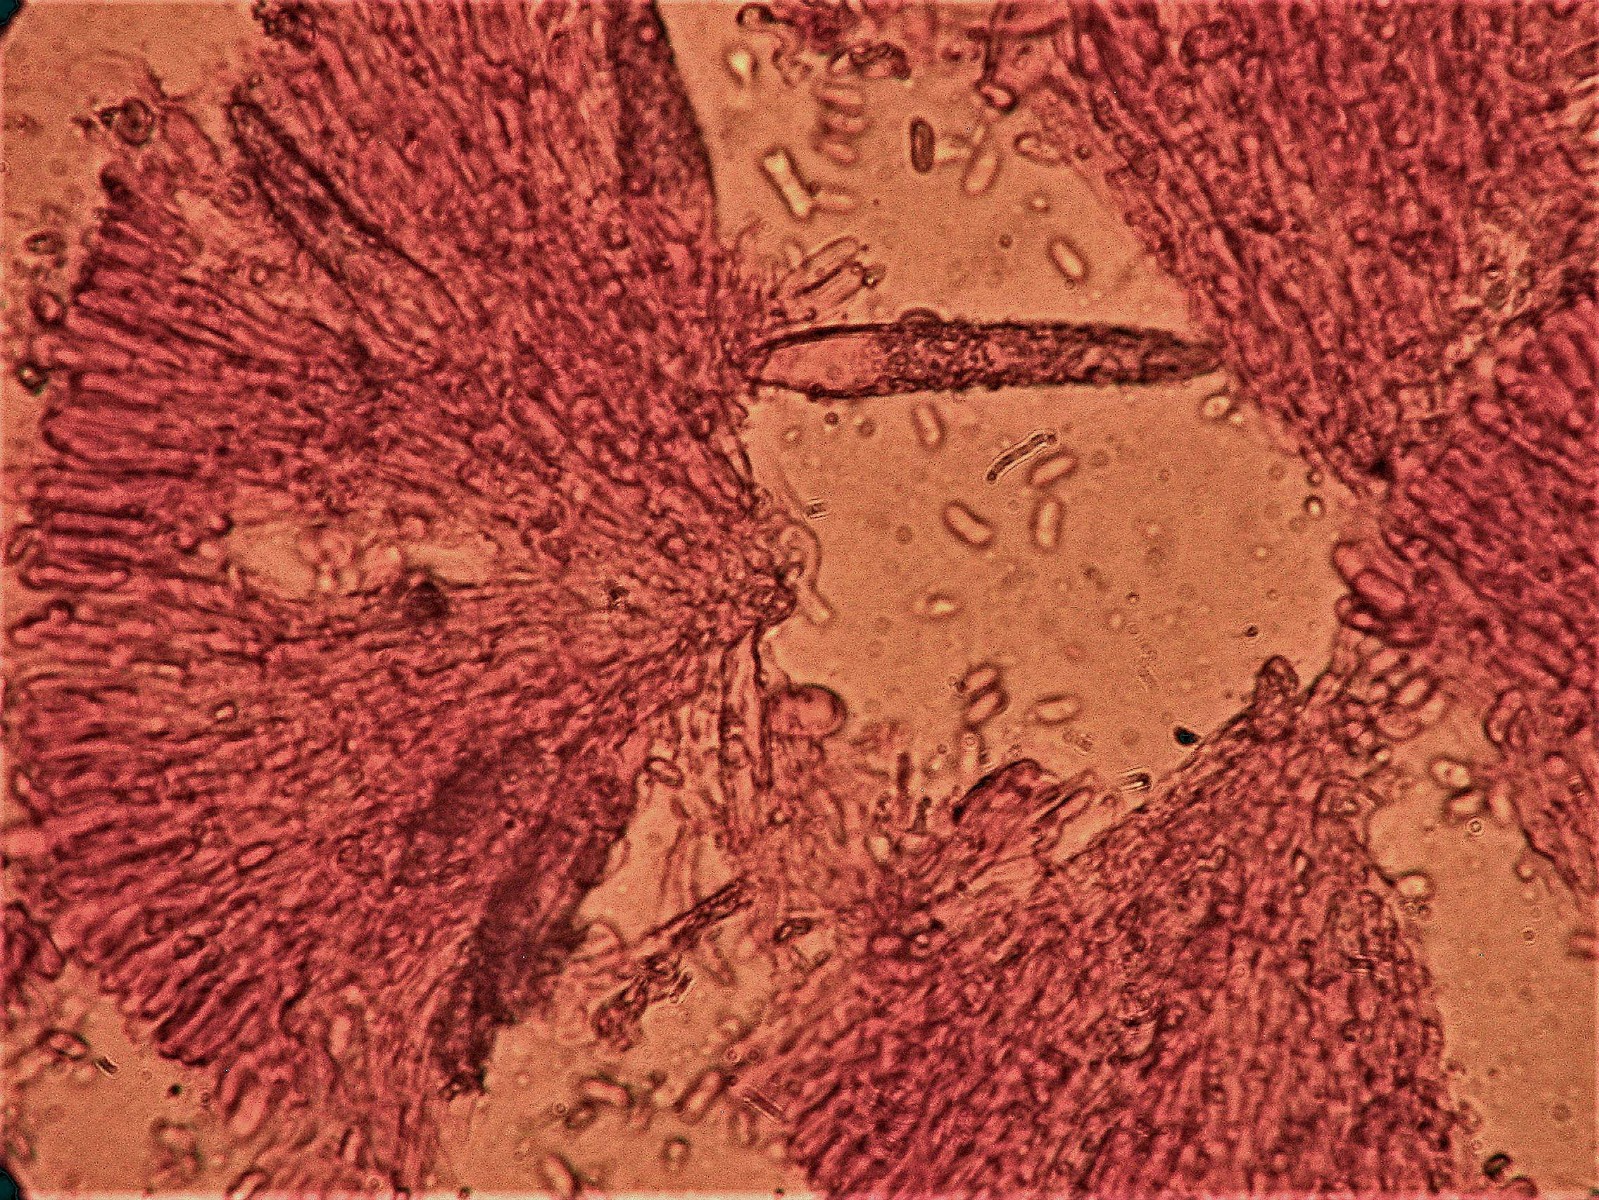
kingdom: Fungi
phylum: Basidiomycota
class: Agaricomycetes
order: Polyporales
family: Phanerochaetaceae
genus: Phanerochaete
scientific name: Phanerochaete sordida
